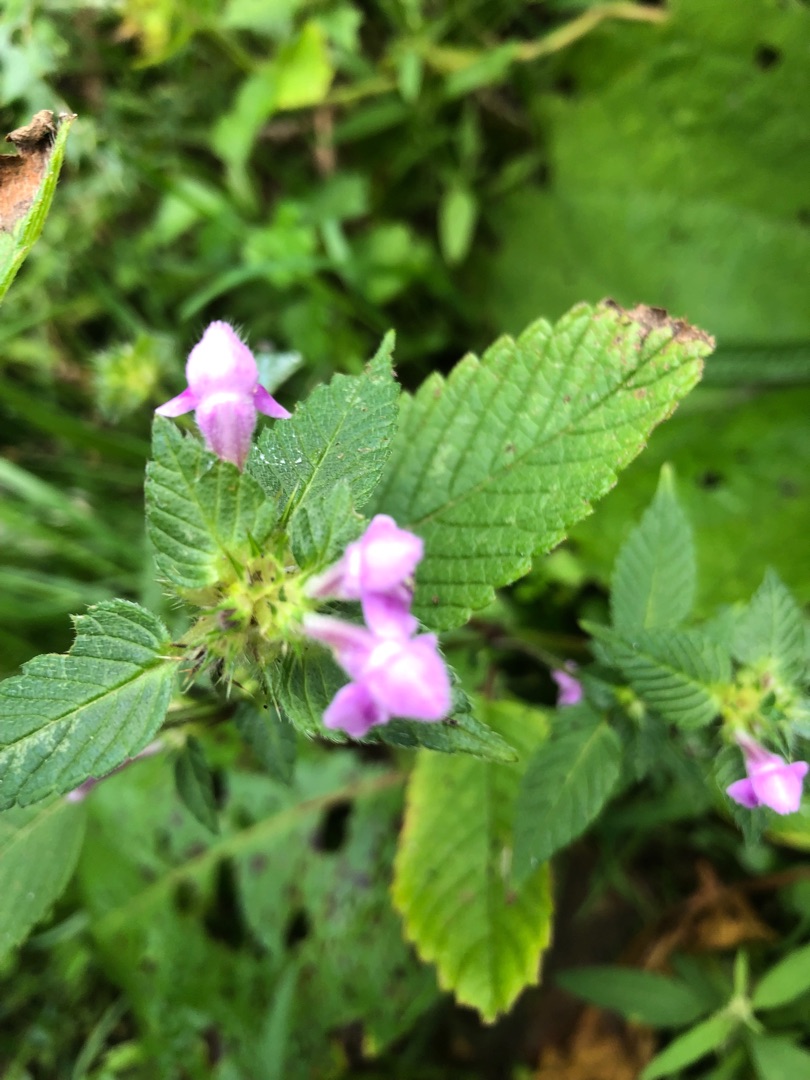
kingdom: Plantae
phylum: Tracheophyta
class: Magnoliopsida
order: Lamiales
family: Lamiaceae
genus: Galeopsis
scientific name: Galeopsis bifida
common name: Skov-hanekro
